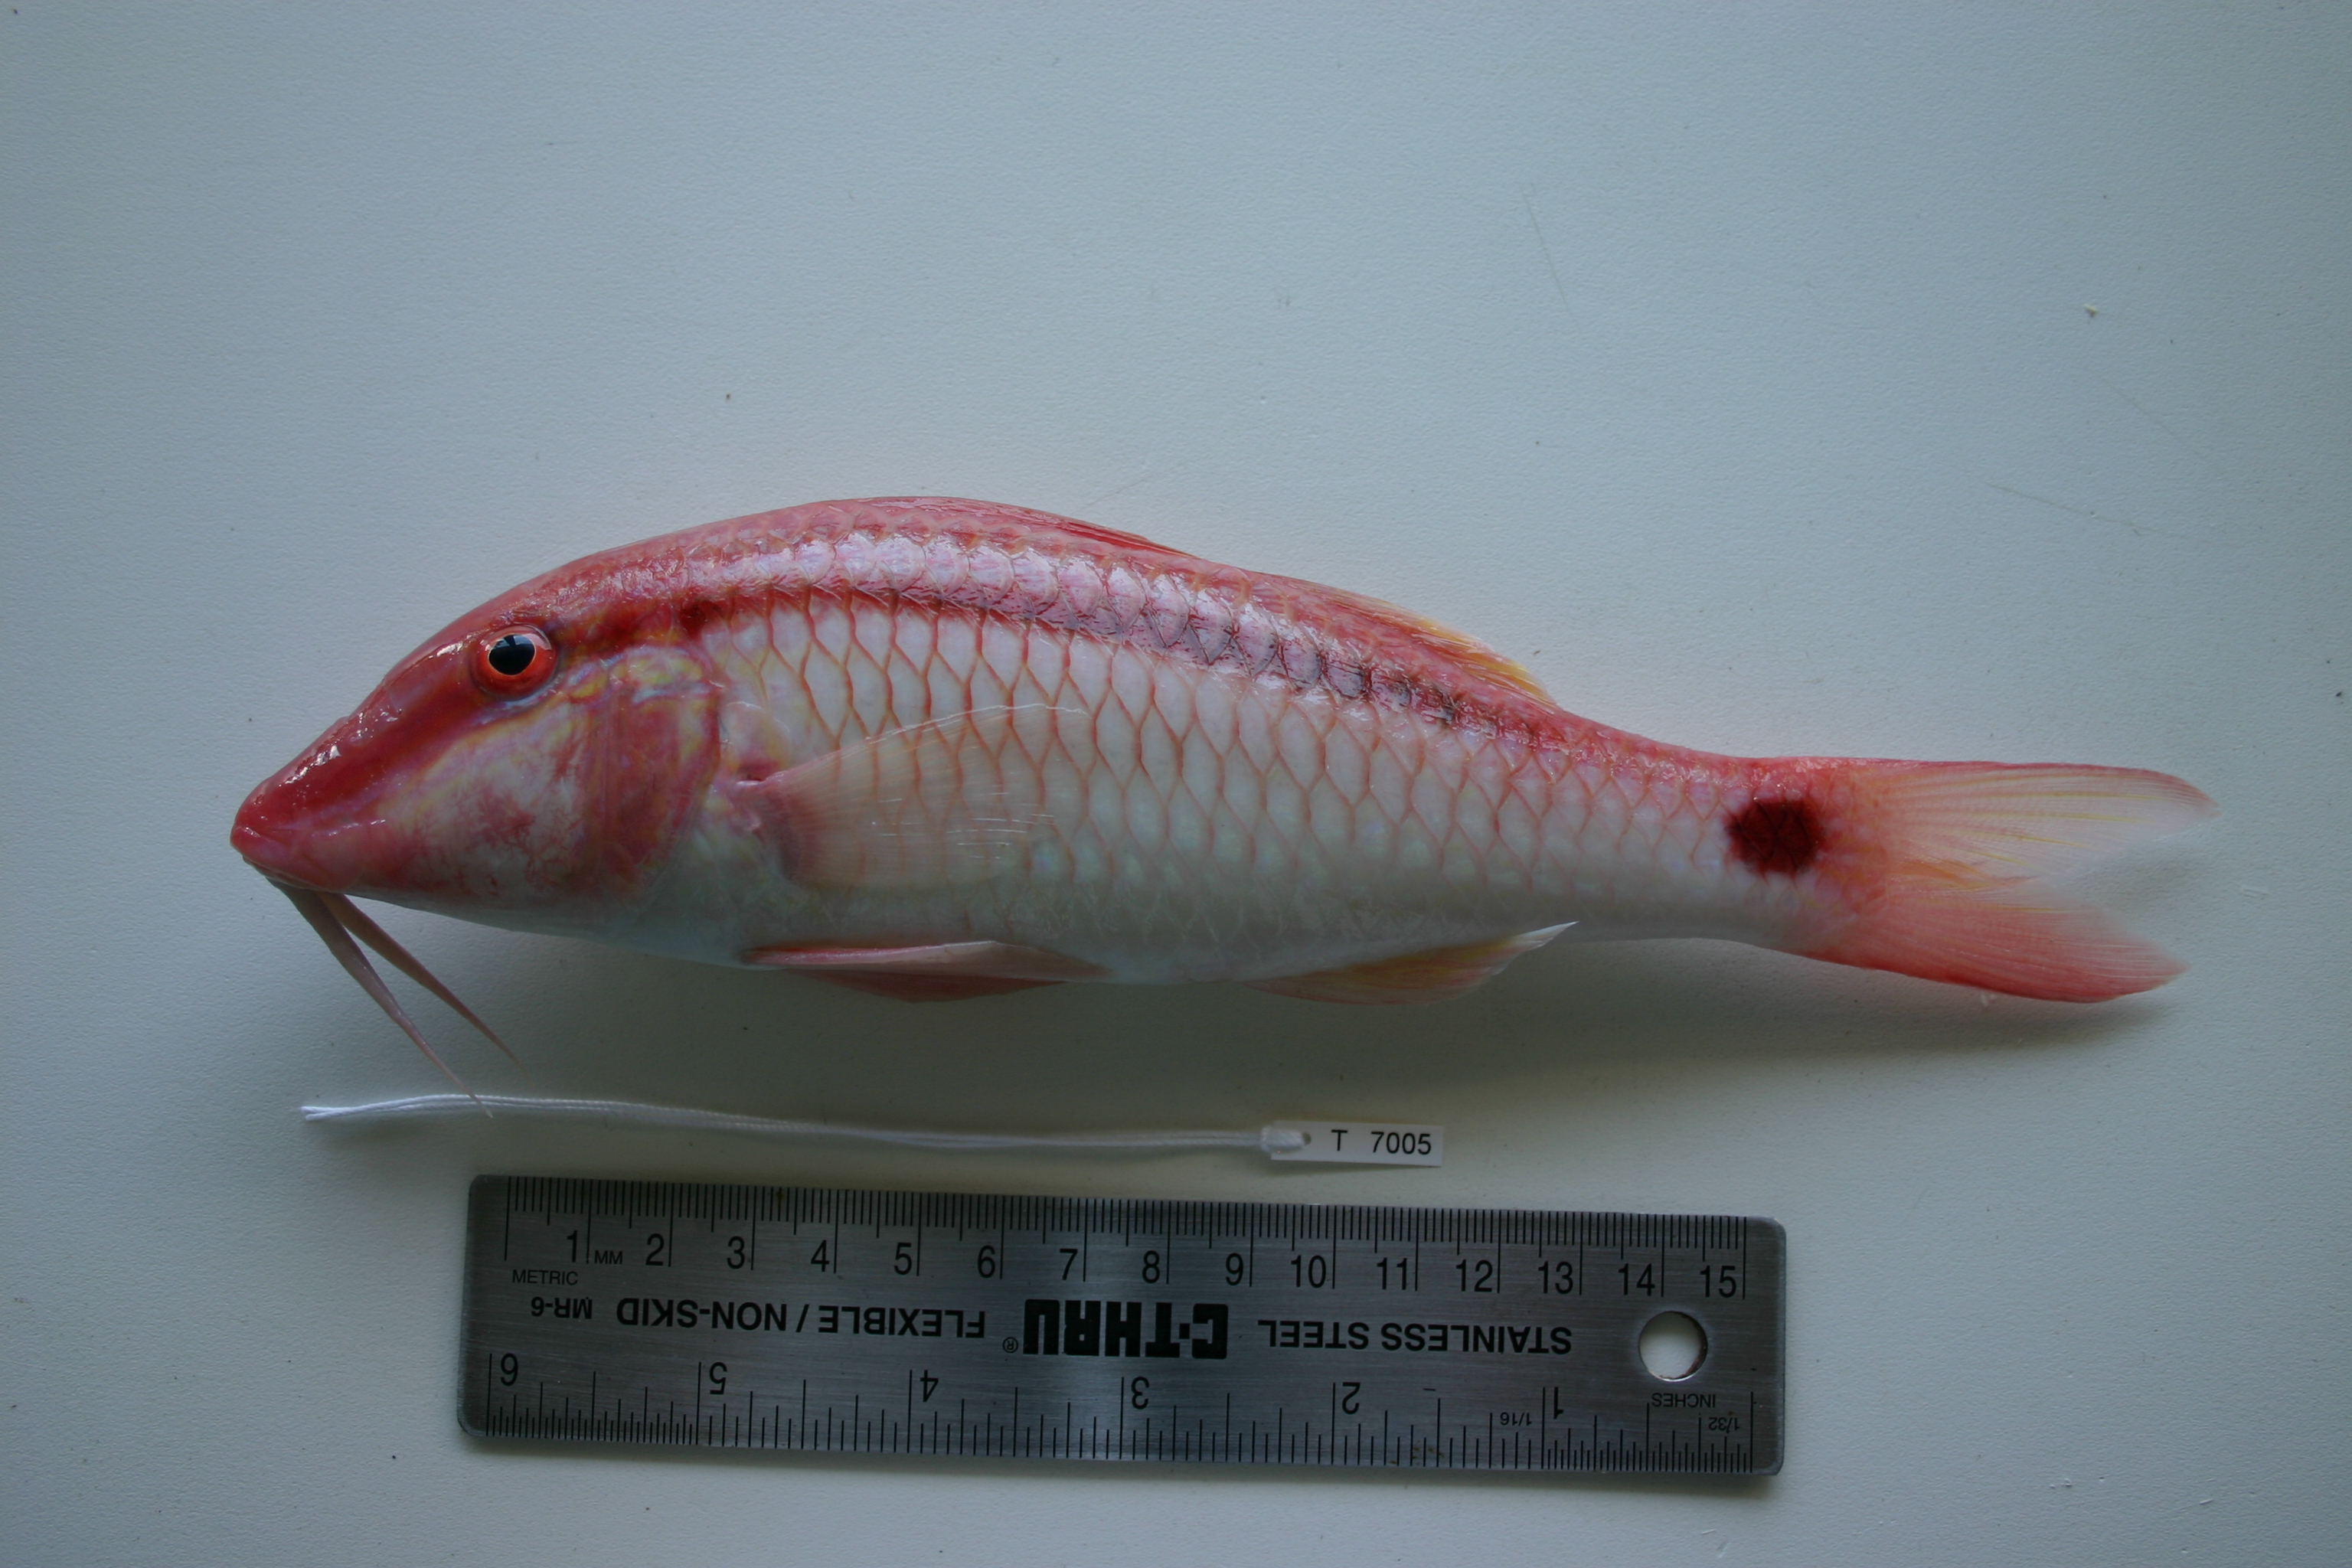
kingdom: Animalia
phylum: Chordata
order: Perciformes
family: Mullidae
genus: Parupeneus
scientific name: Parupeneus barberinus
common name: Dash-and-dot goatfish
